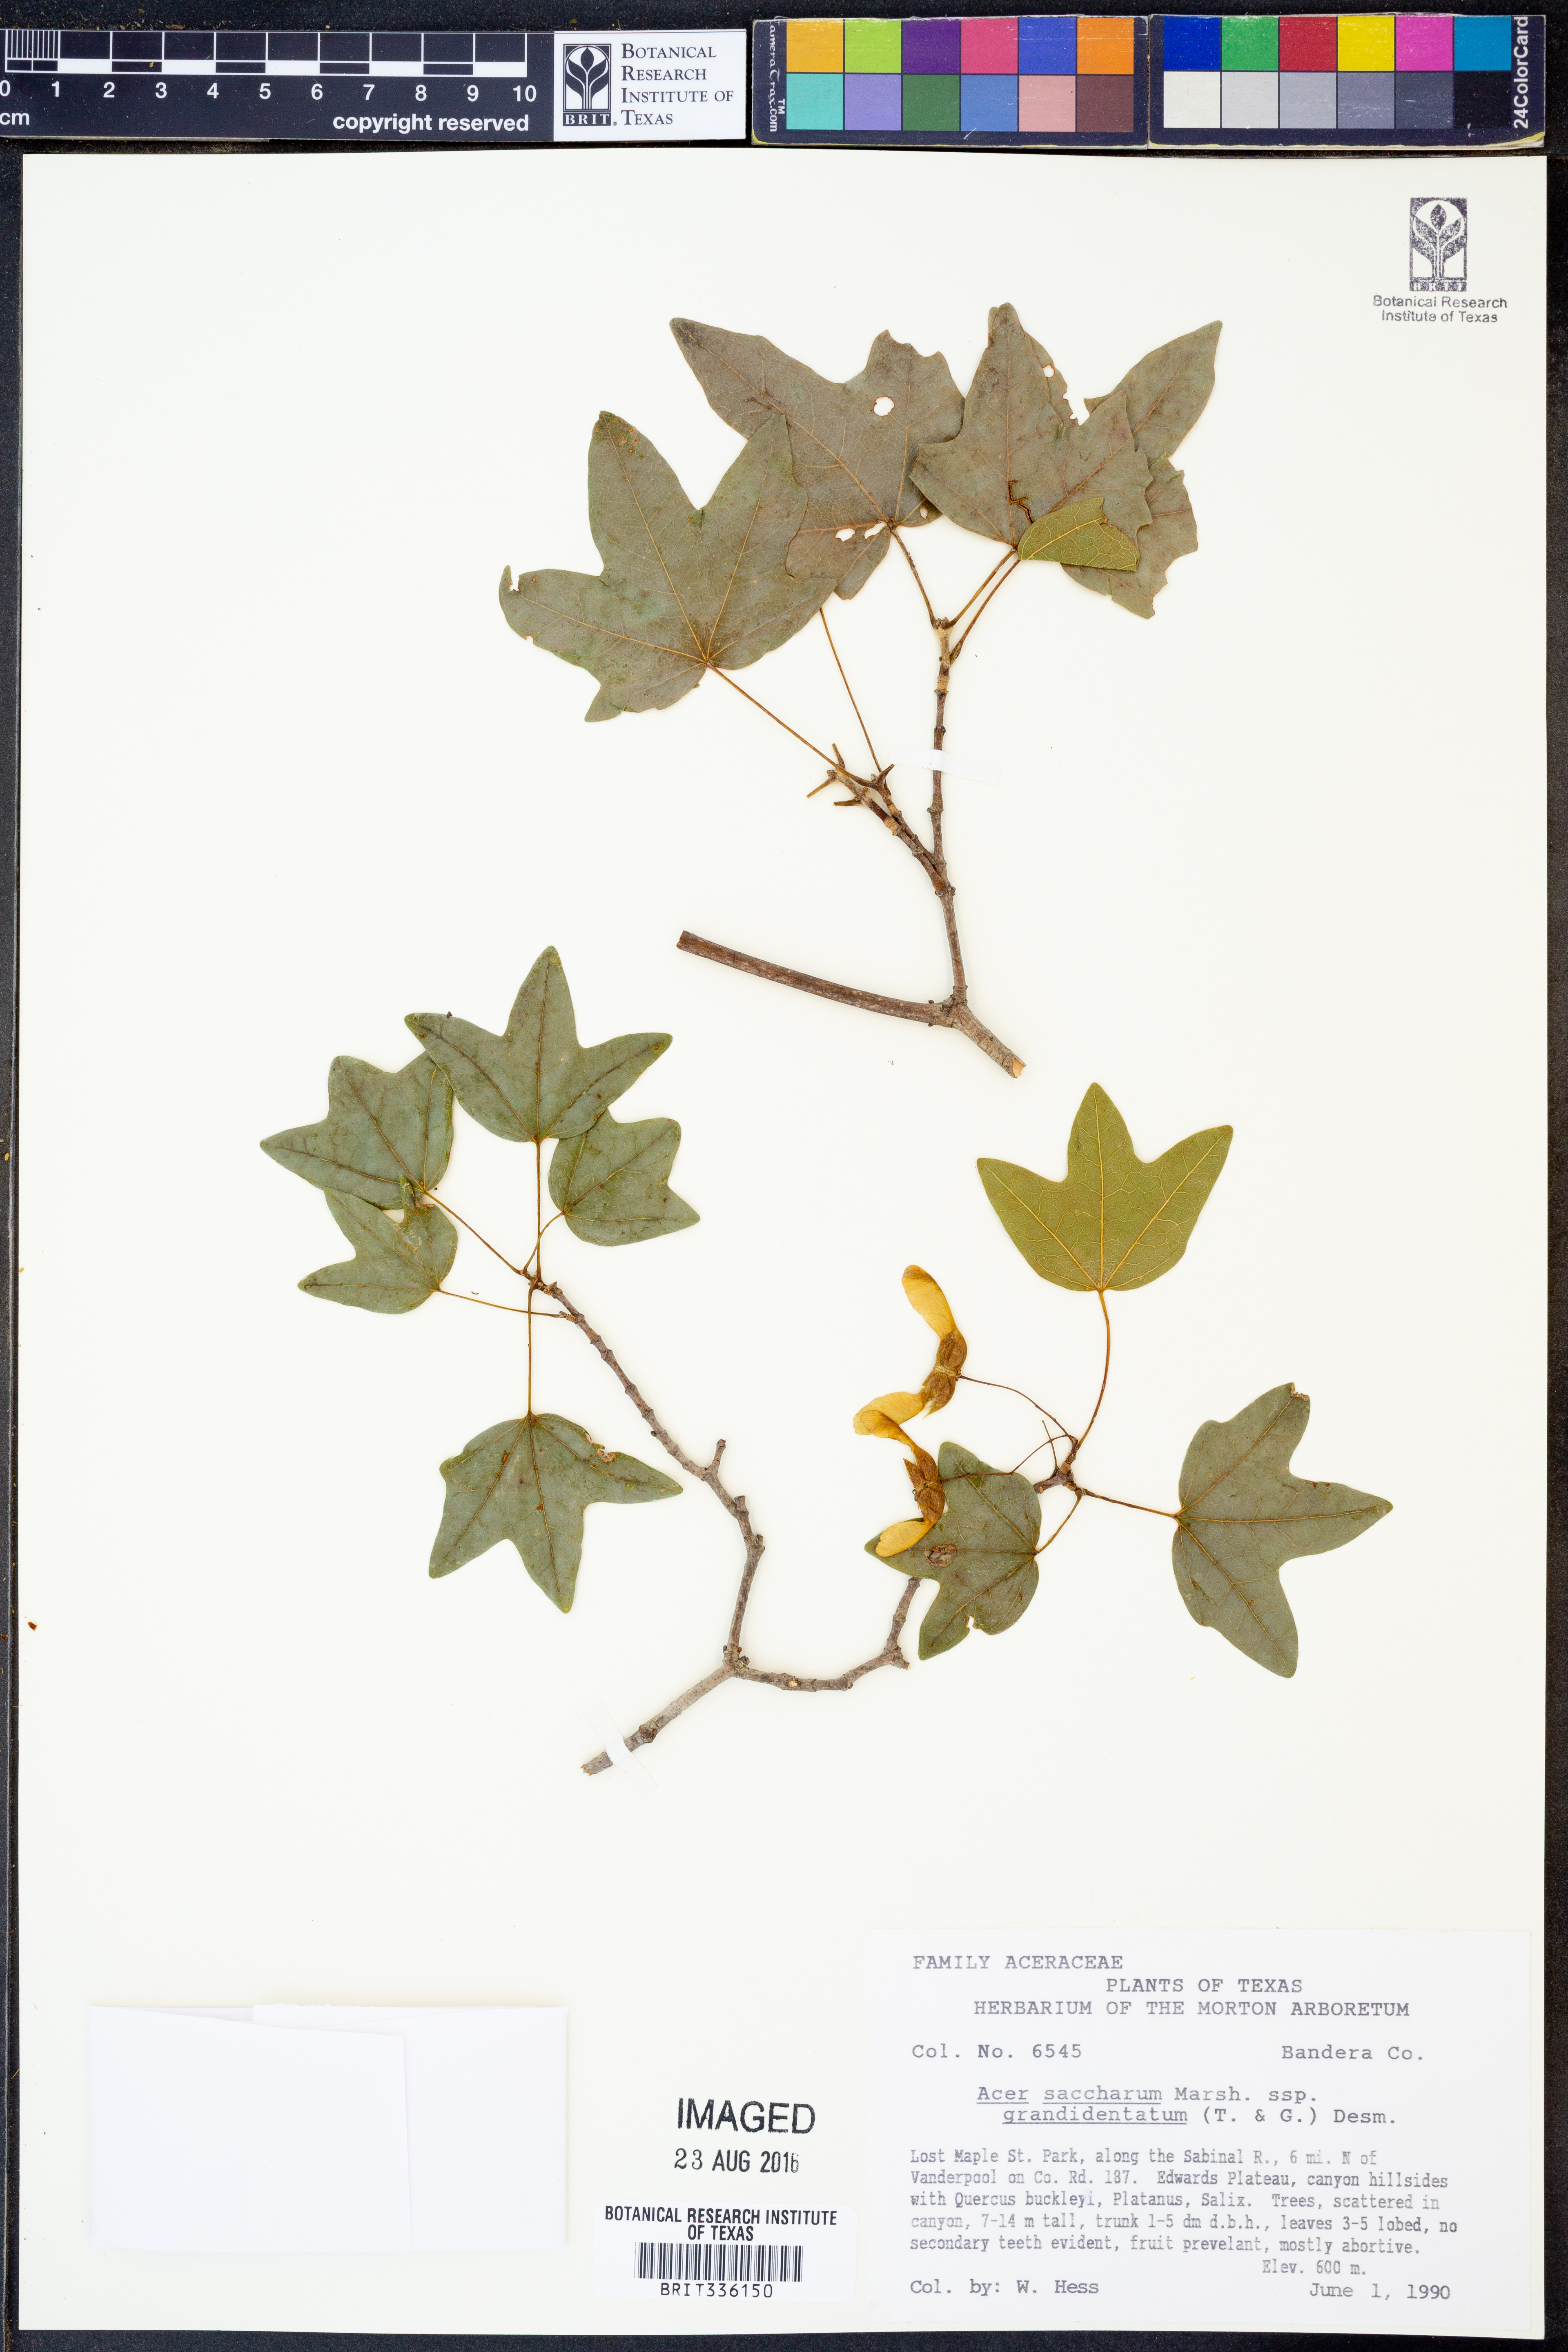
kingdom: Plantae
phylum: Tracheophyta
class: Magnoliopsida
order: Sapindales
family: Sapindaceae
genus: Acer
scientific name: Acer grandidentatum
